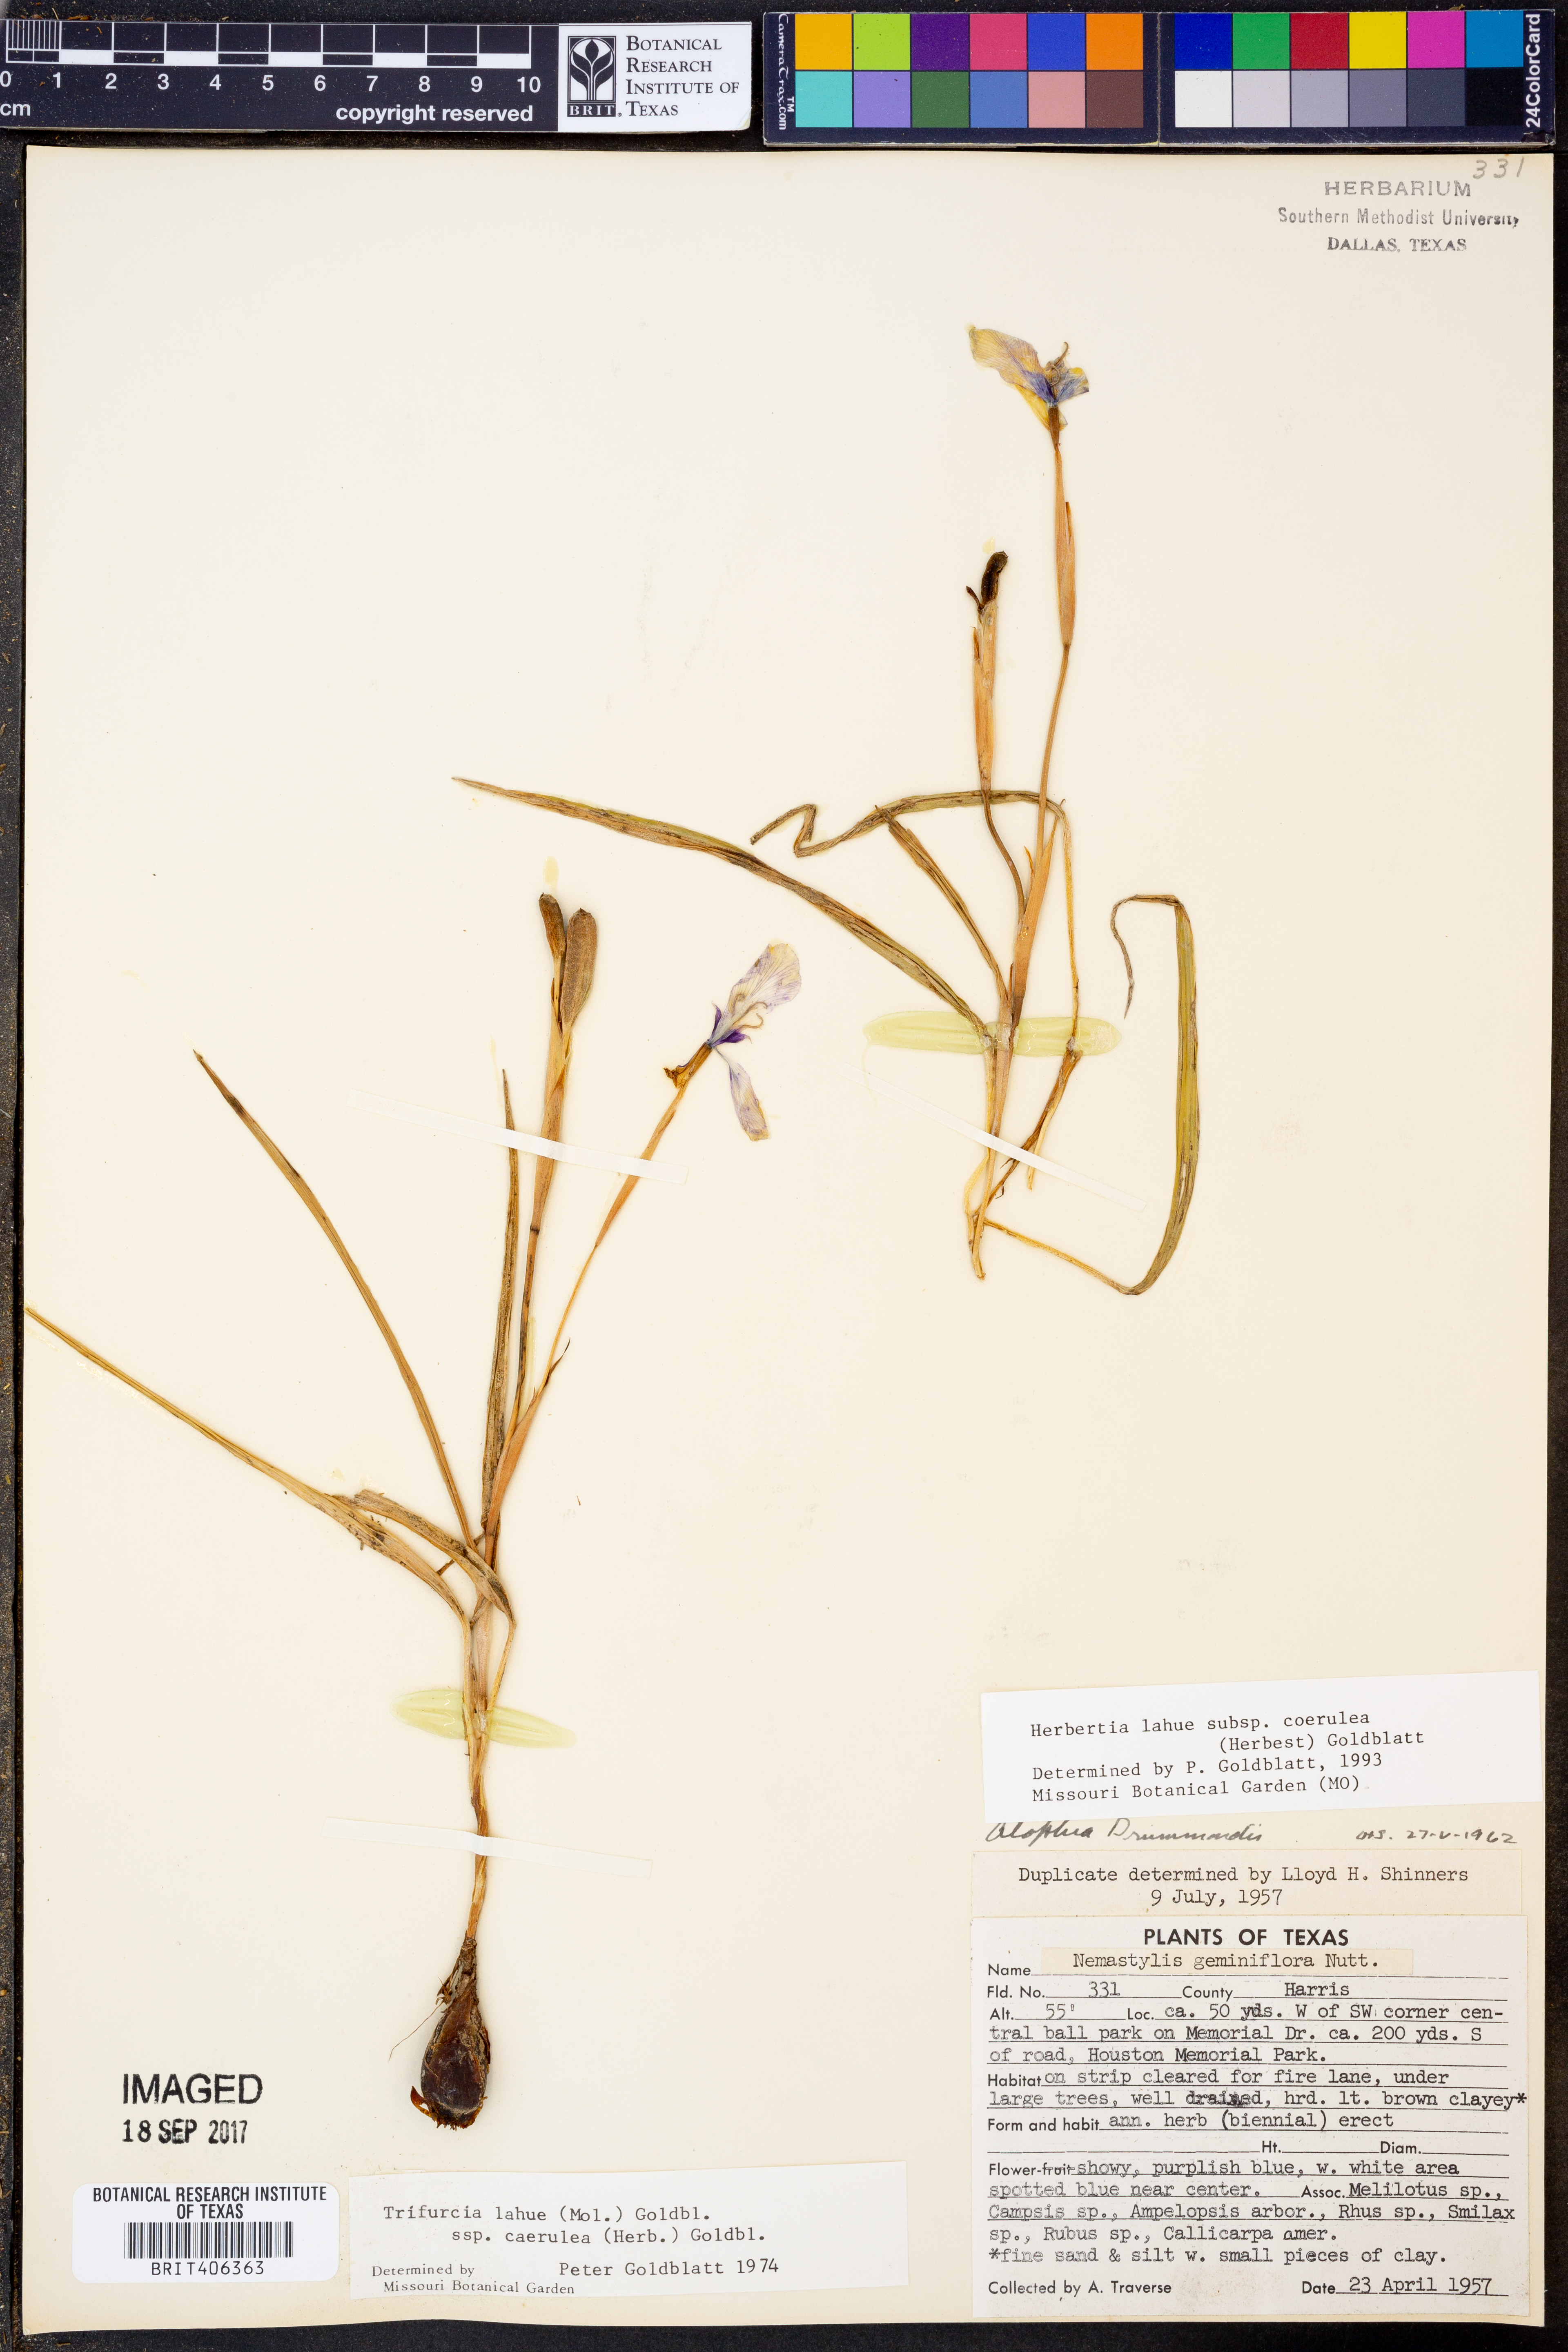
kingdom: Plantae
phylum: Tracheophyta
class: Liliopsida
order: Asparagales
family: Iridaceae
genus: Herbertia
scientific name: Herbertia lahue
